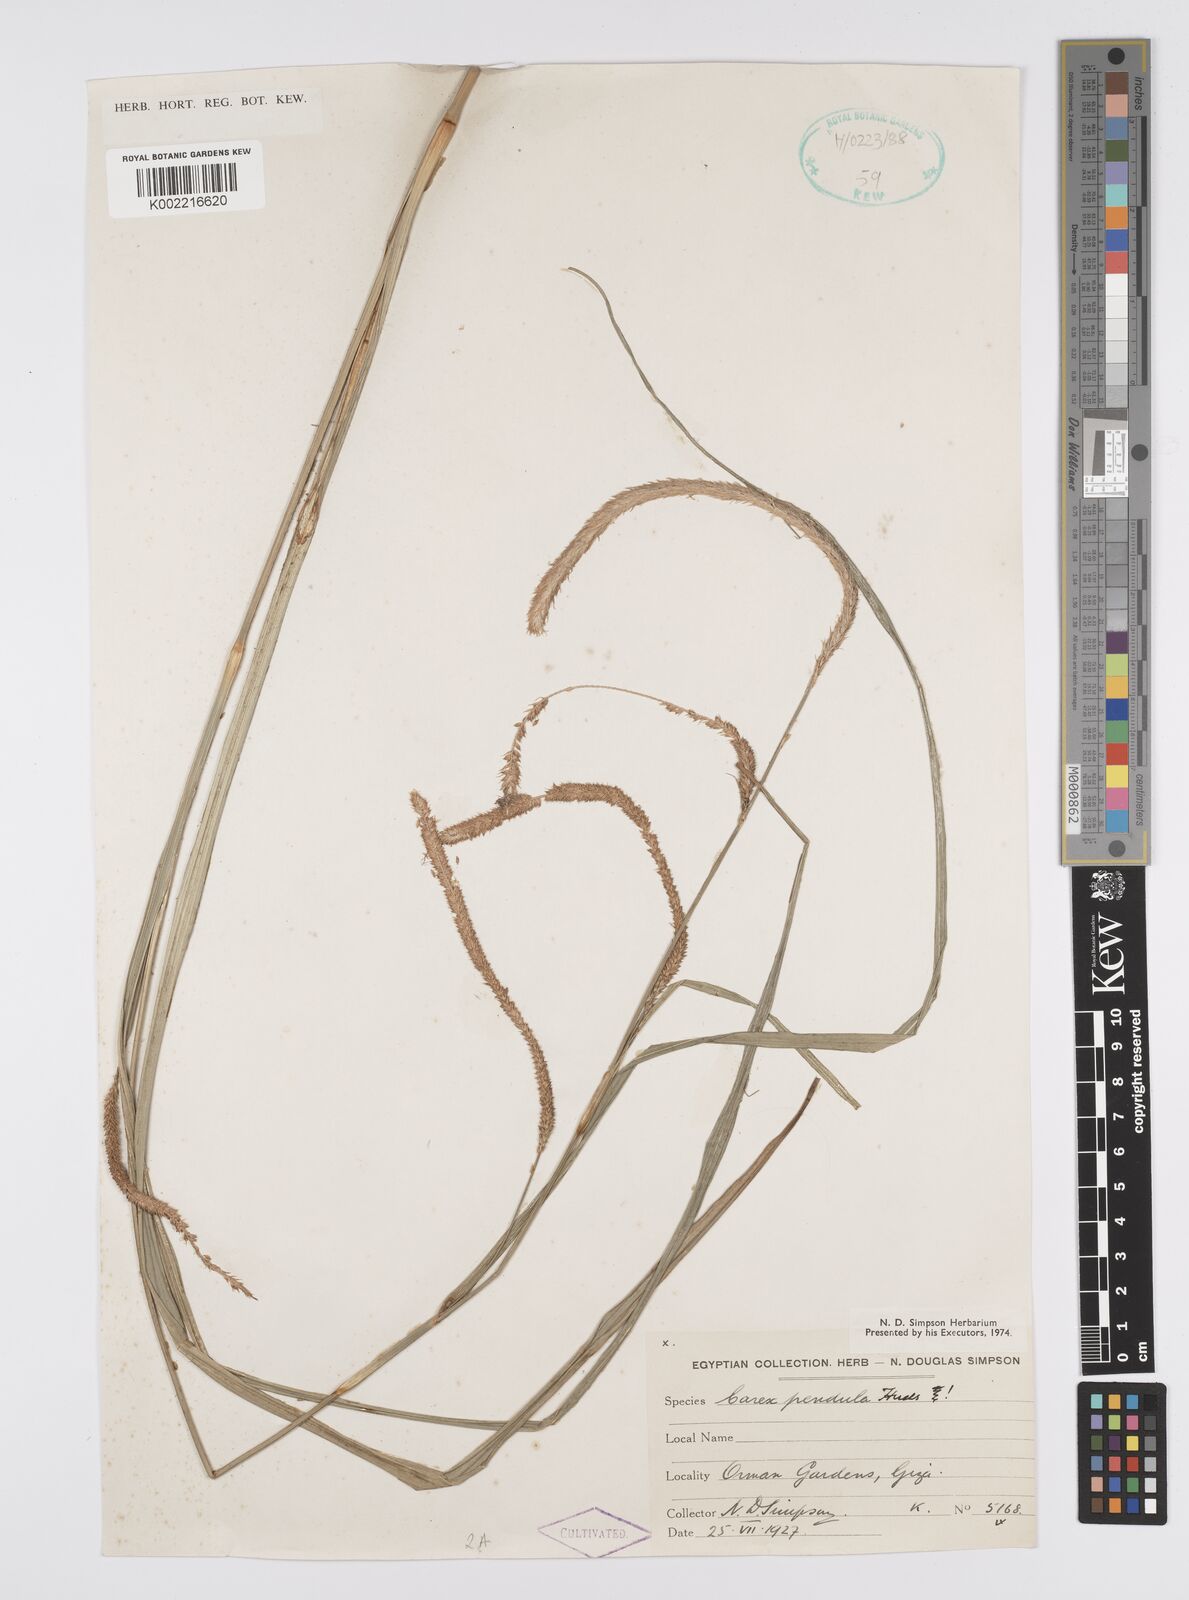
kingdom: Plantae
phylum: Tracheophyta
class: Liliopsida
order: Poales
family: Cyperaceae
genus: Carex
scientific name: Carex pendula
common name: Pendulous sedge
